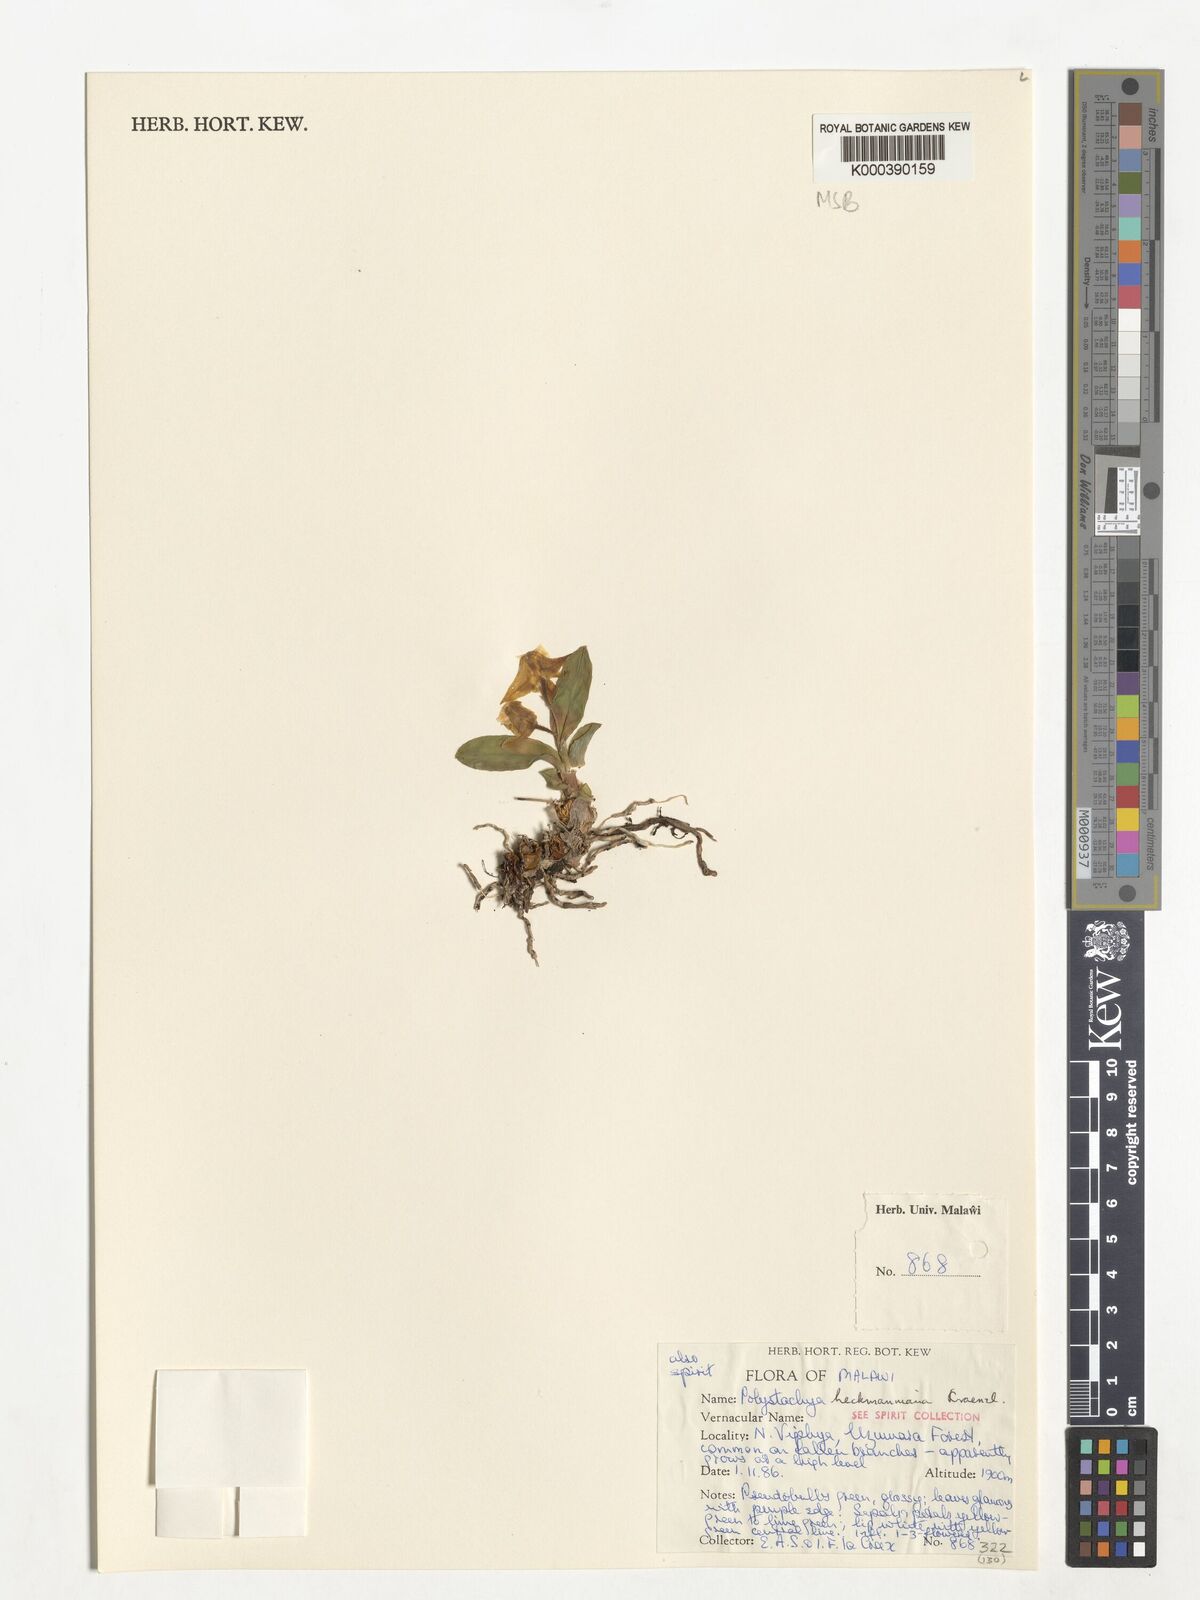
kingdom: Plantae
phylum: Tracheophyta
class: Liliopsida
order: Asparagales
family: Orchidaceae
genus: Polystachya
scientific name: Polystachya heckmanniana
